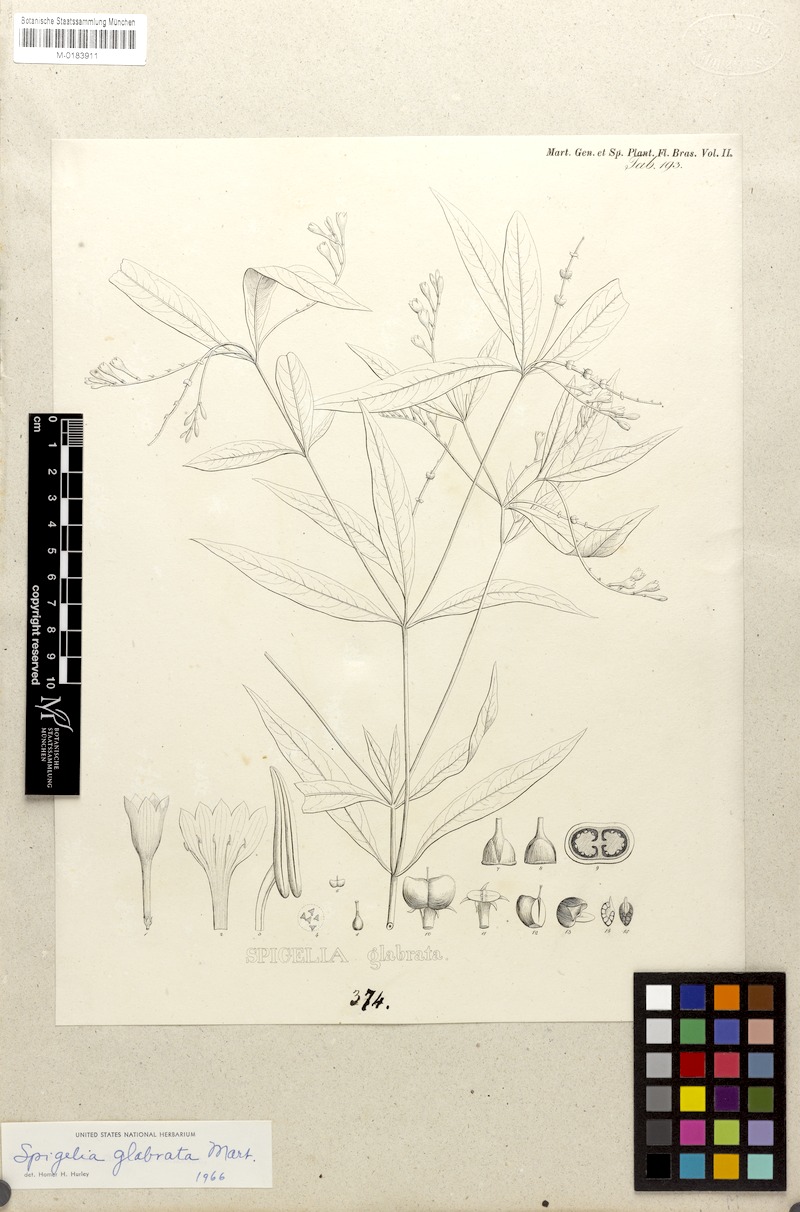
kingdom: Plantae
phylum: Tracheophyta
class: Magnoliopsida
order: Gentianales
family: Loganiaceae
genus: Spigelia
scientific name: Spigelia glabrata
